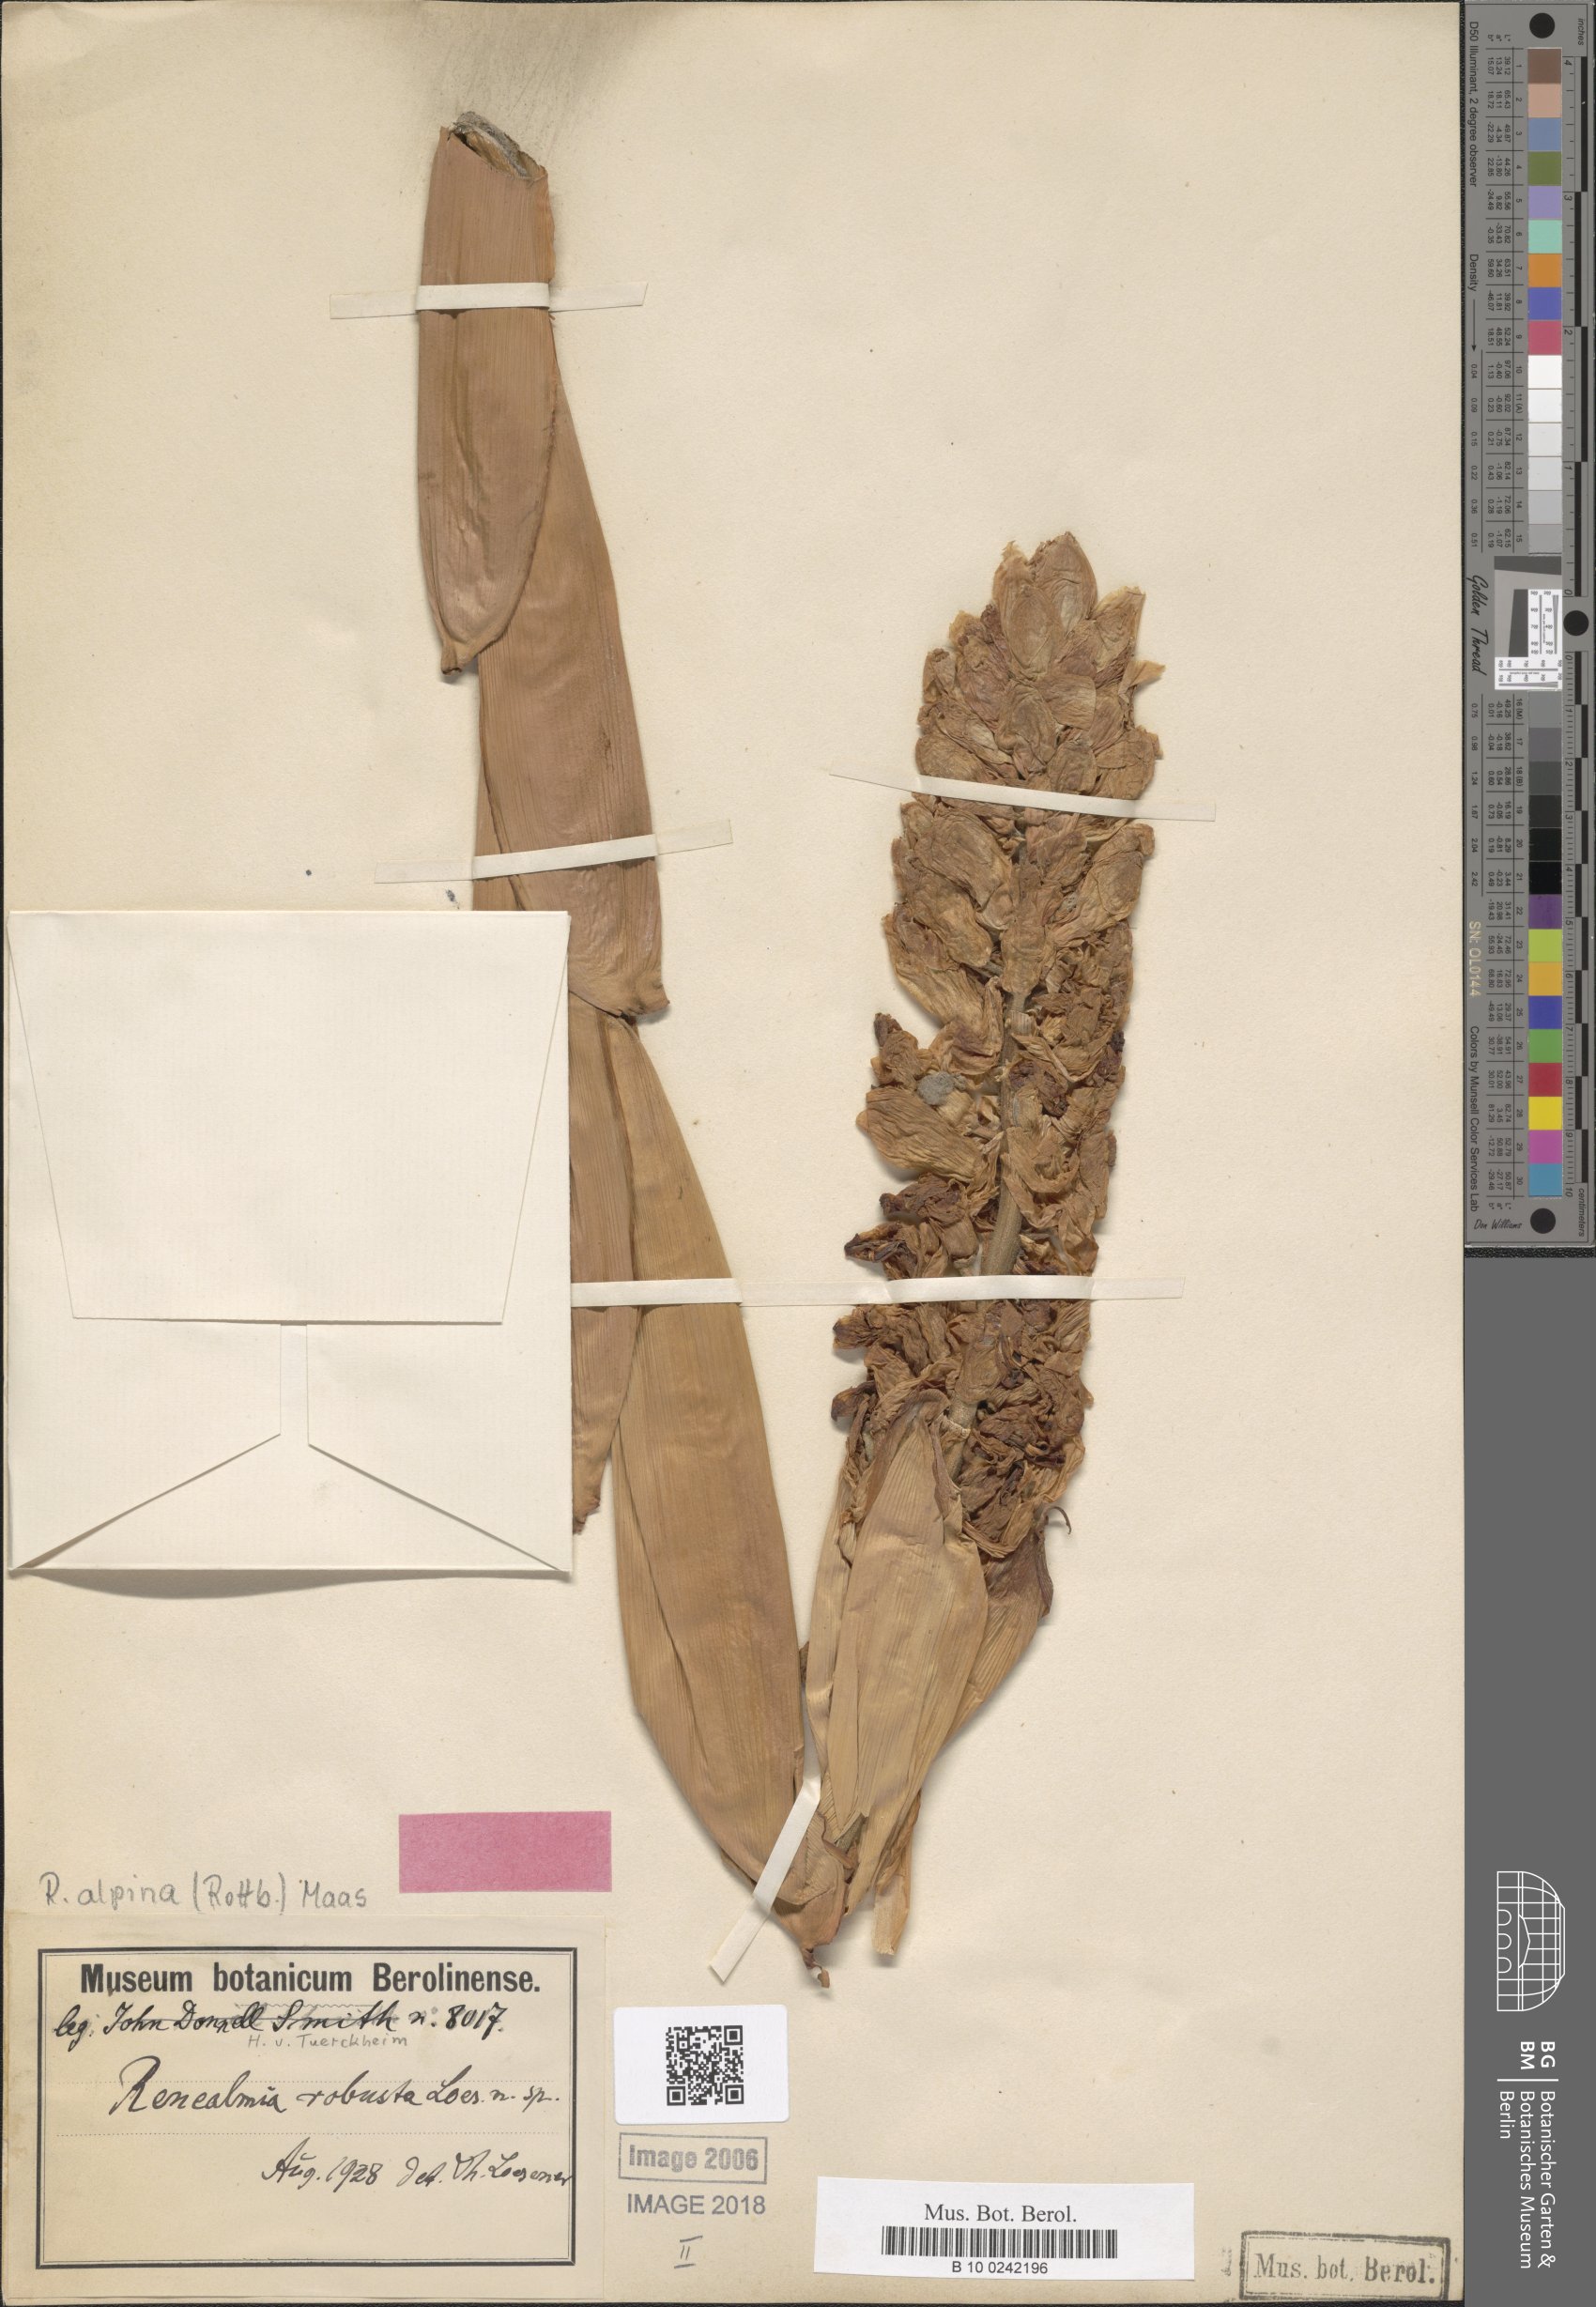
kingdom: Plantae
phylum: Tracheophyta
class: Liliopsida
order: Zingiberales
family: Zingiberaceae
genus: Renealmia
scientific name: Renealmia alpinia
